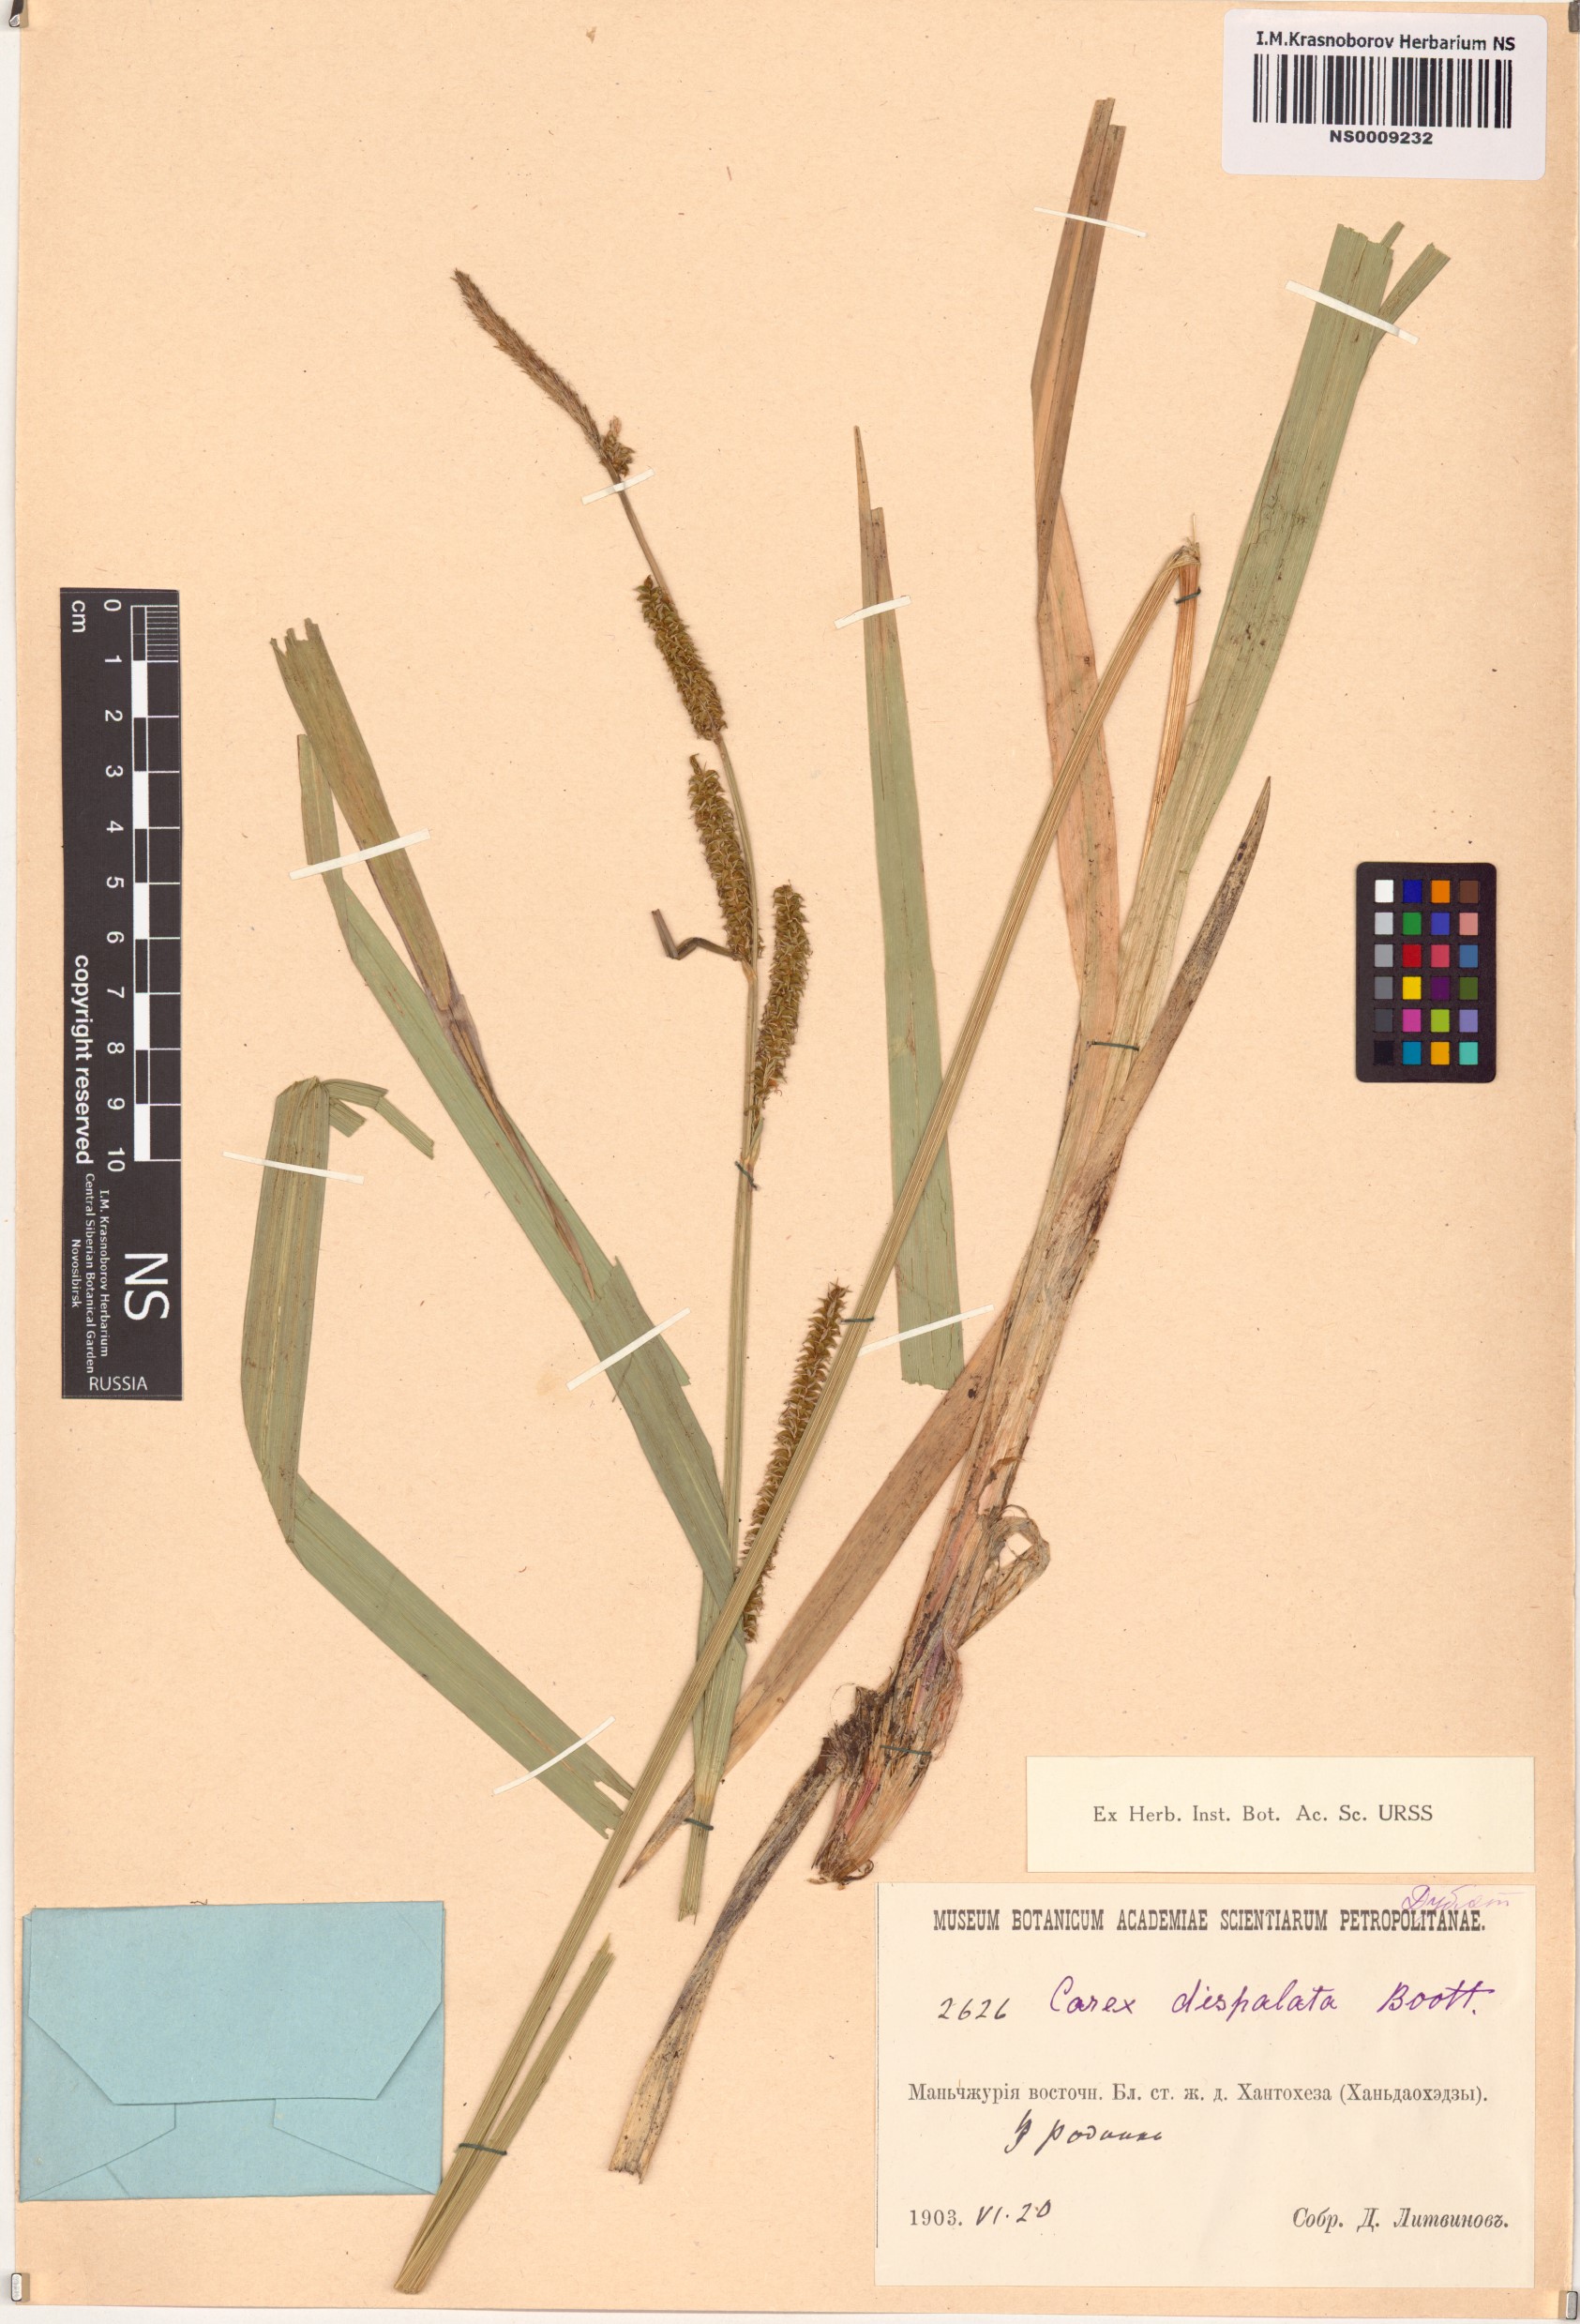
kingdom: Plantae
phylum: Tracheophyta
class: Liliopsida
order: Poales
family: Cyperaceae
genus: Carex
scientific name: Carex dispalata
